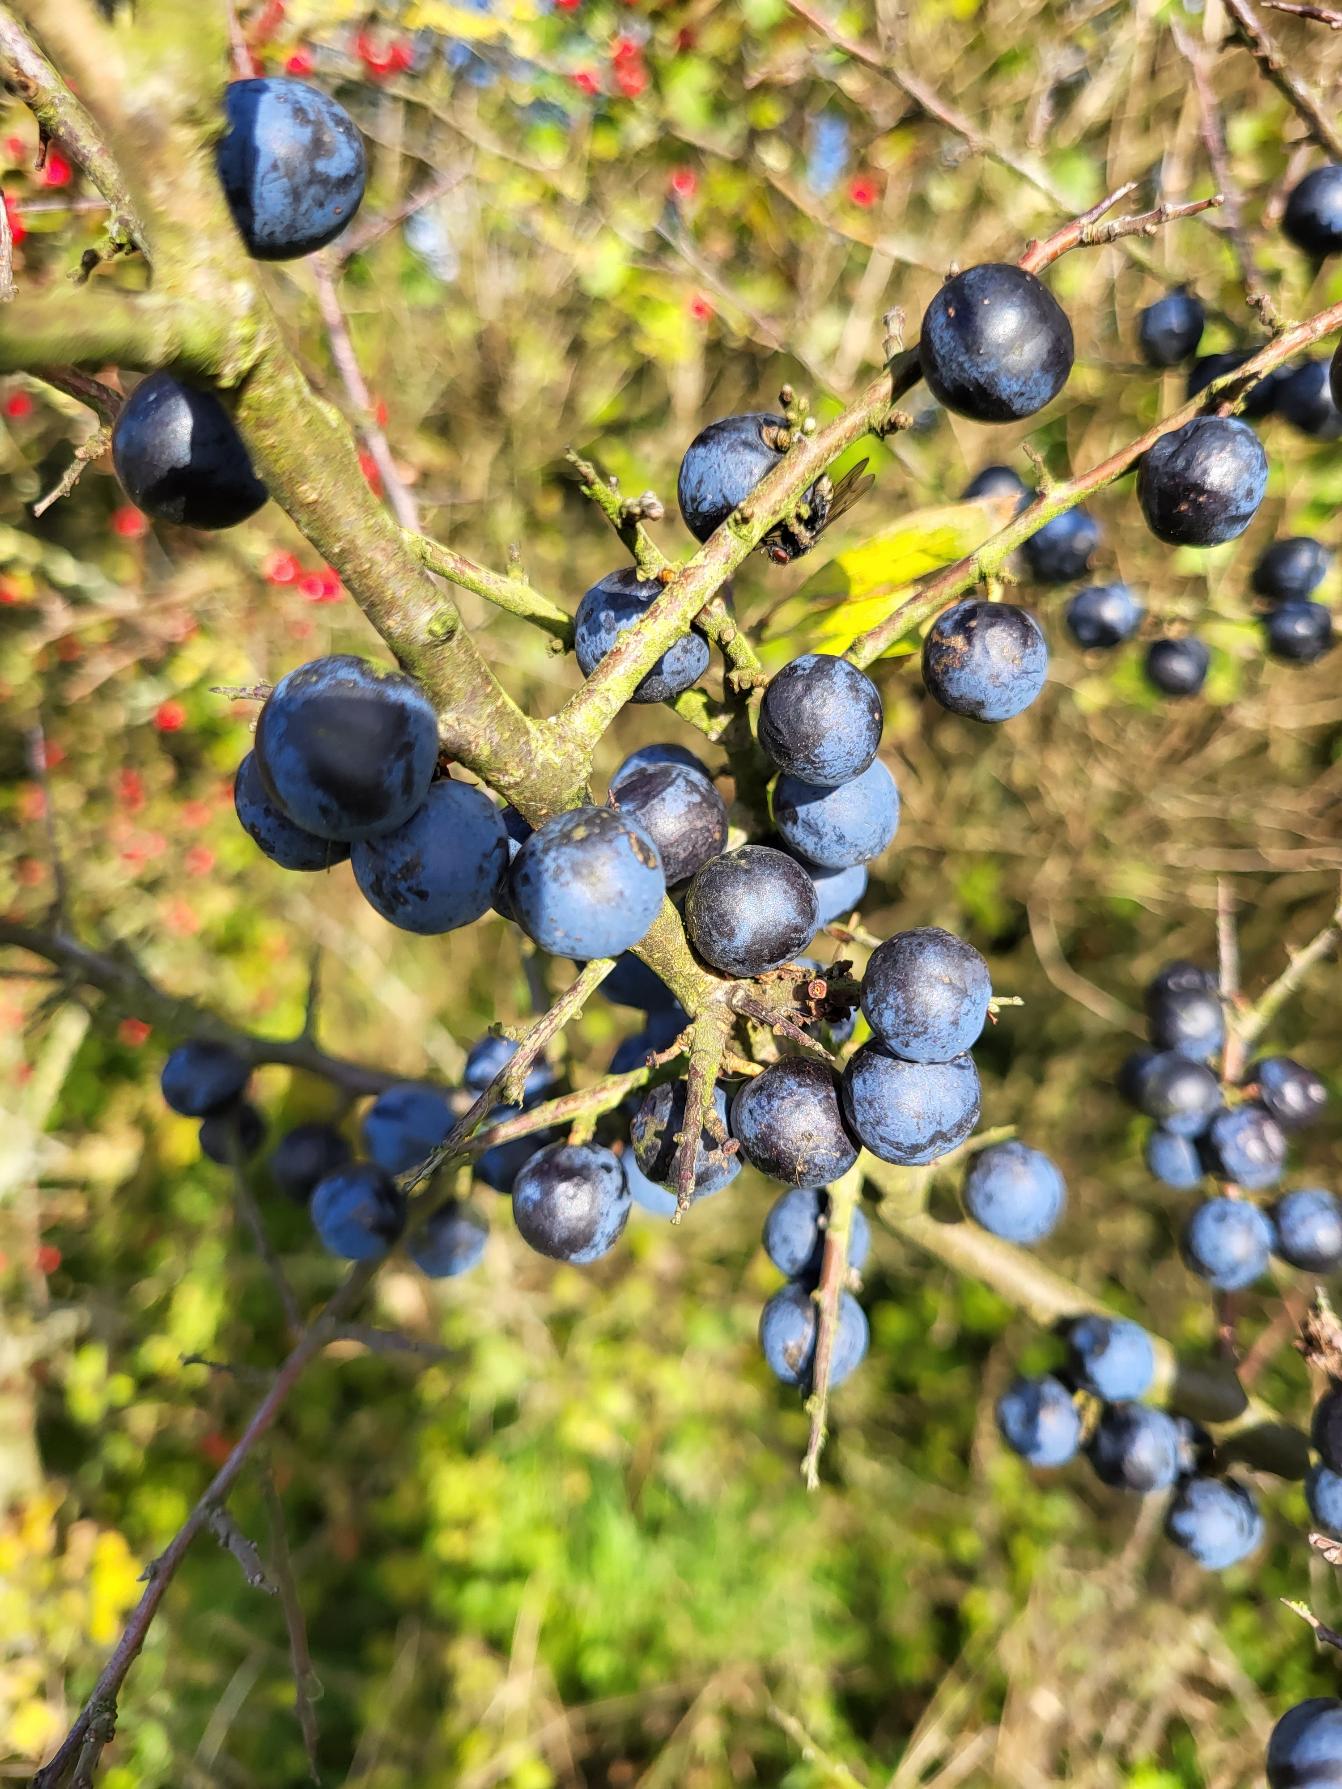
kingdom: Plantae
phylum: Tracheophyta
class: Magnoliopsida
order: Rosales
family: Rosaceae
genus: Prunus
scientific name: Prunus spinosa
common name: Slåen
